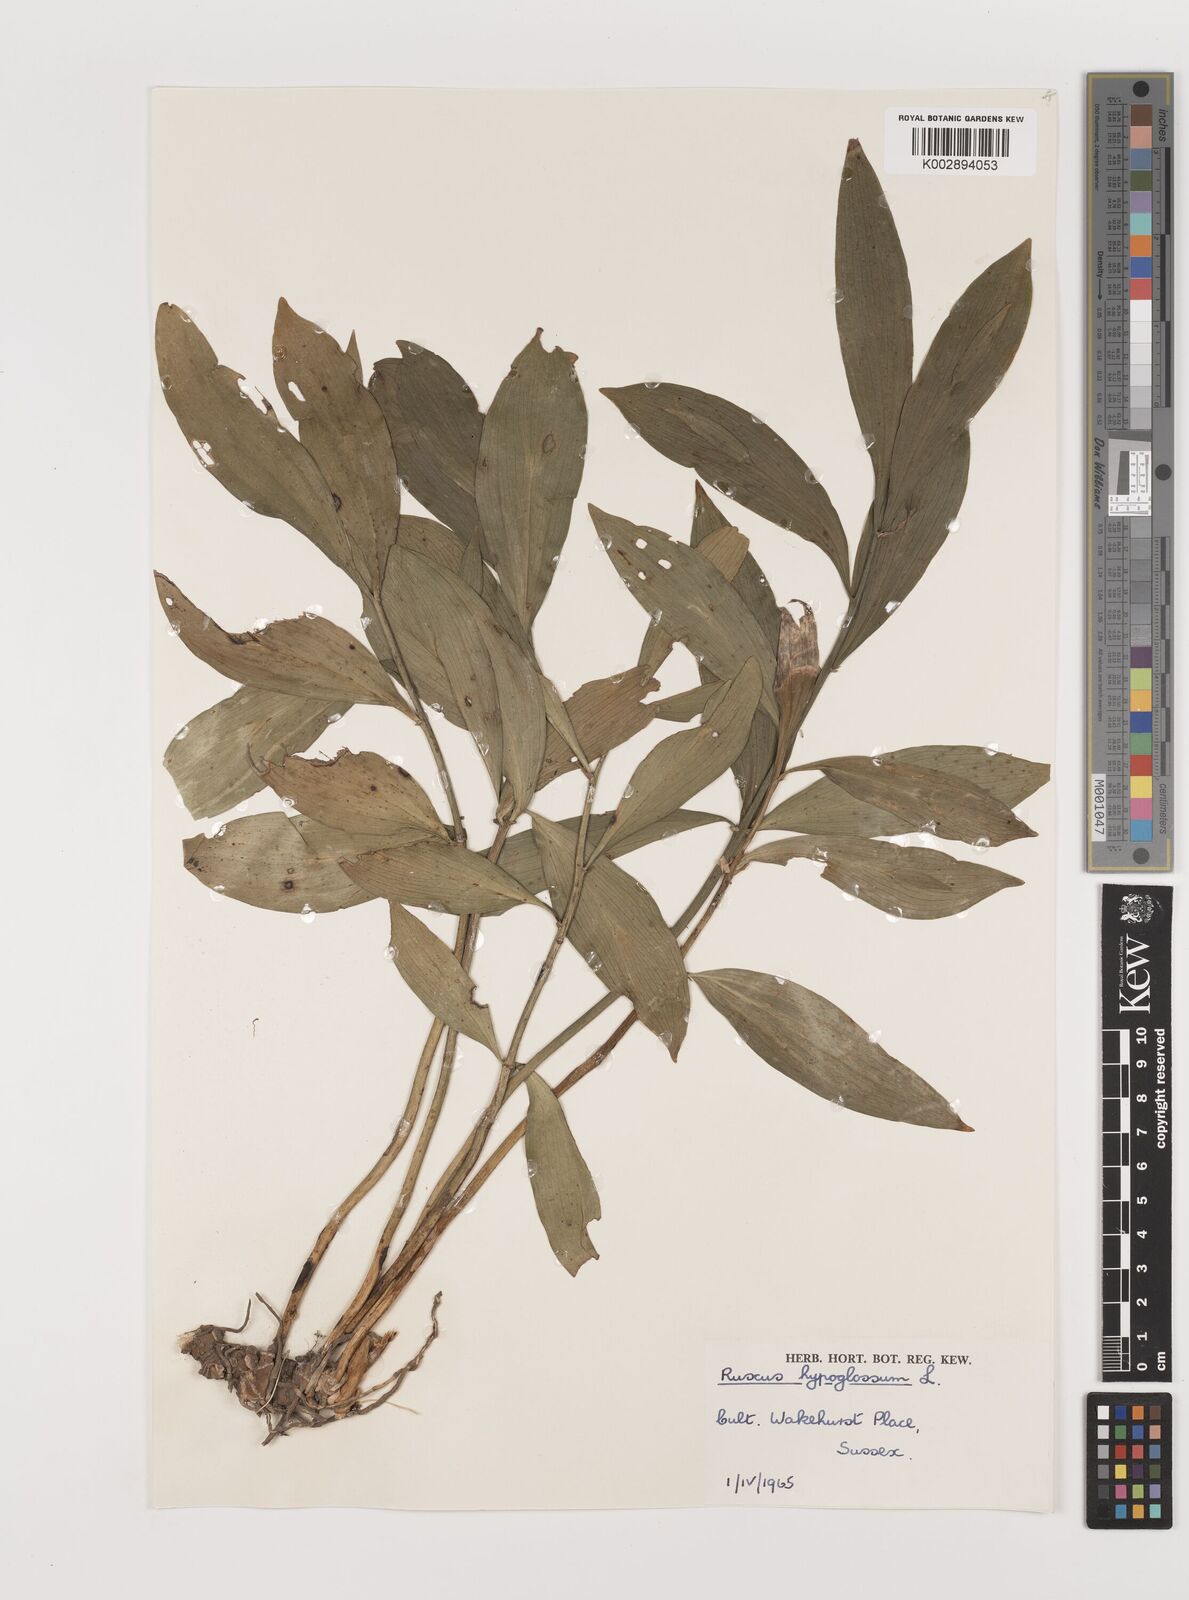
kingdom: Plantae
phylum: Tracheophyta
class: Liliopsida
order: Asparagales
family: Asparagaceae
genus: Ruscus
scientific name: Ruscus hypoglossum
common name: Spineless butcher's-broom
